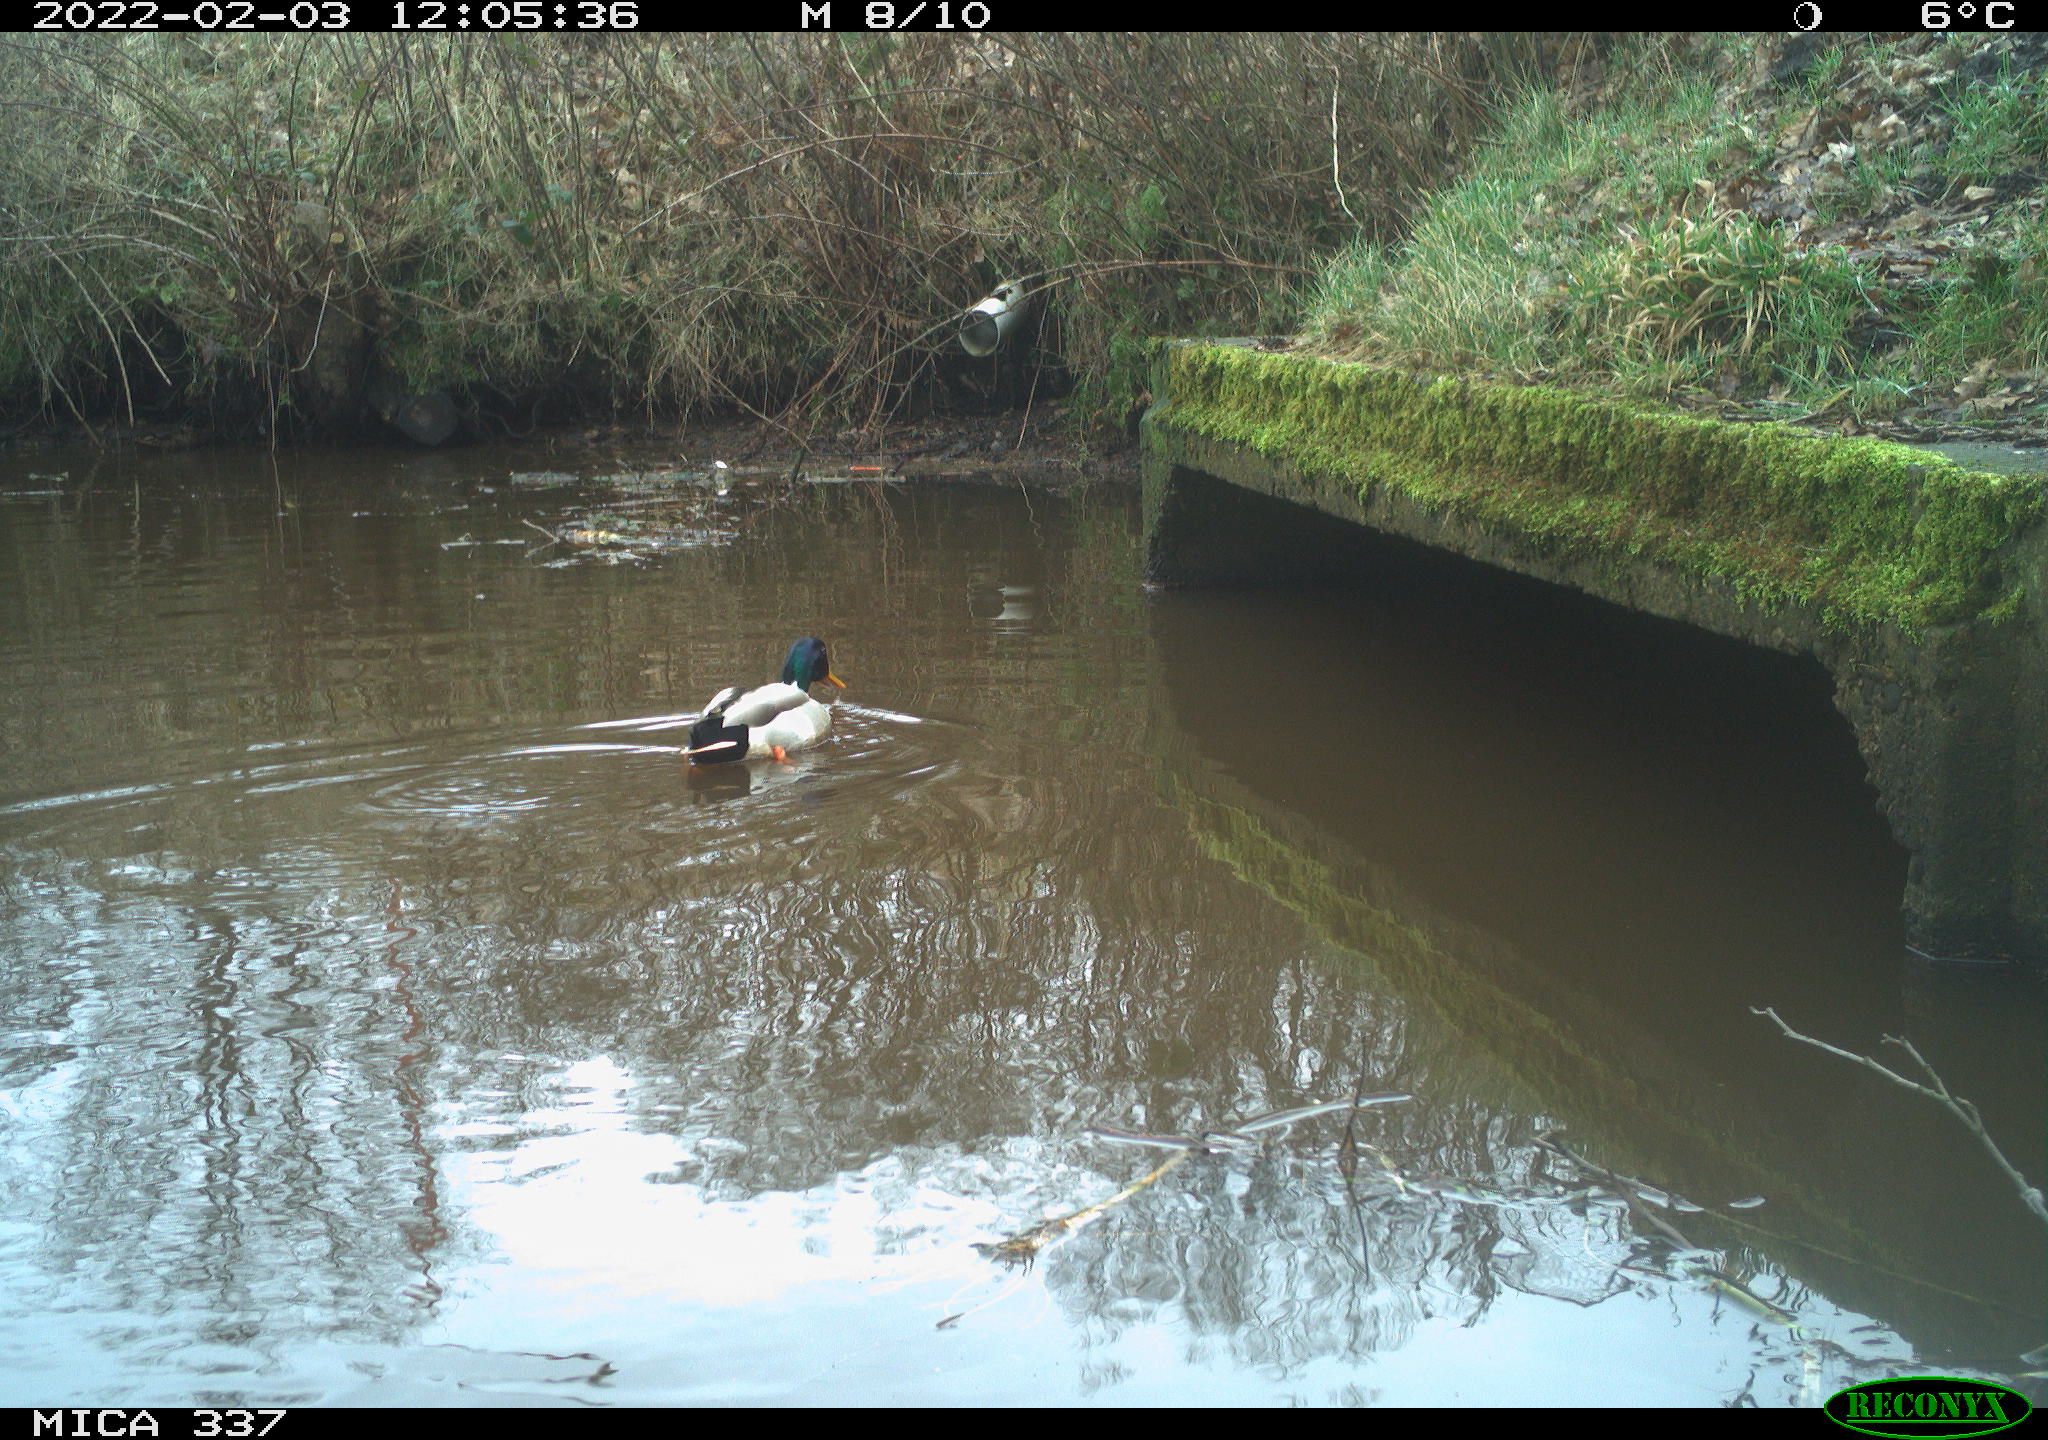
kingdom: Animalia
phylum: Chordata
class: Aves
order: Anseriformes
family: Anatidae
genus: Anas
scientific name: Anas platyrhynchos
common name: Mallard
